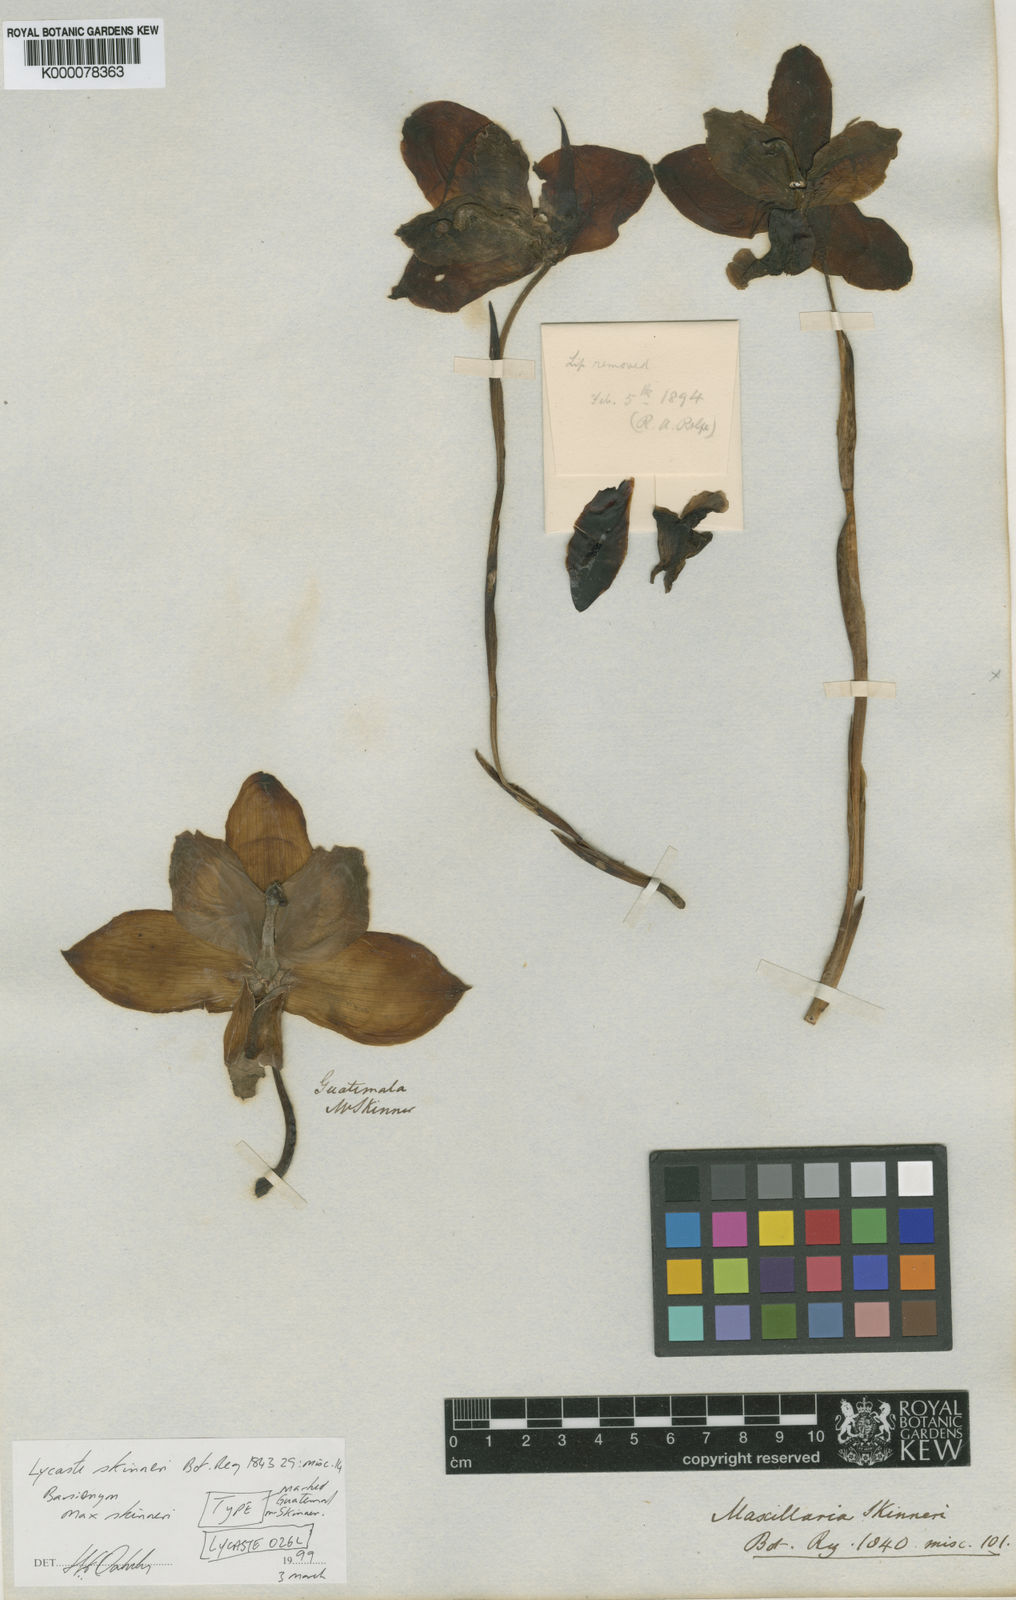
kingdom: Plantae
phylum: Tracheophyta
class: Liliopsida
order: Asparagales
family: Orchidaceae
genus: Lycaste
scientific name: Lycaste virginalis
